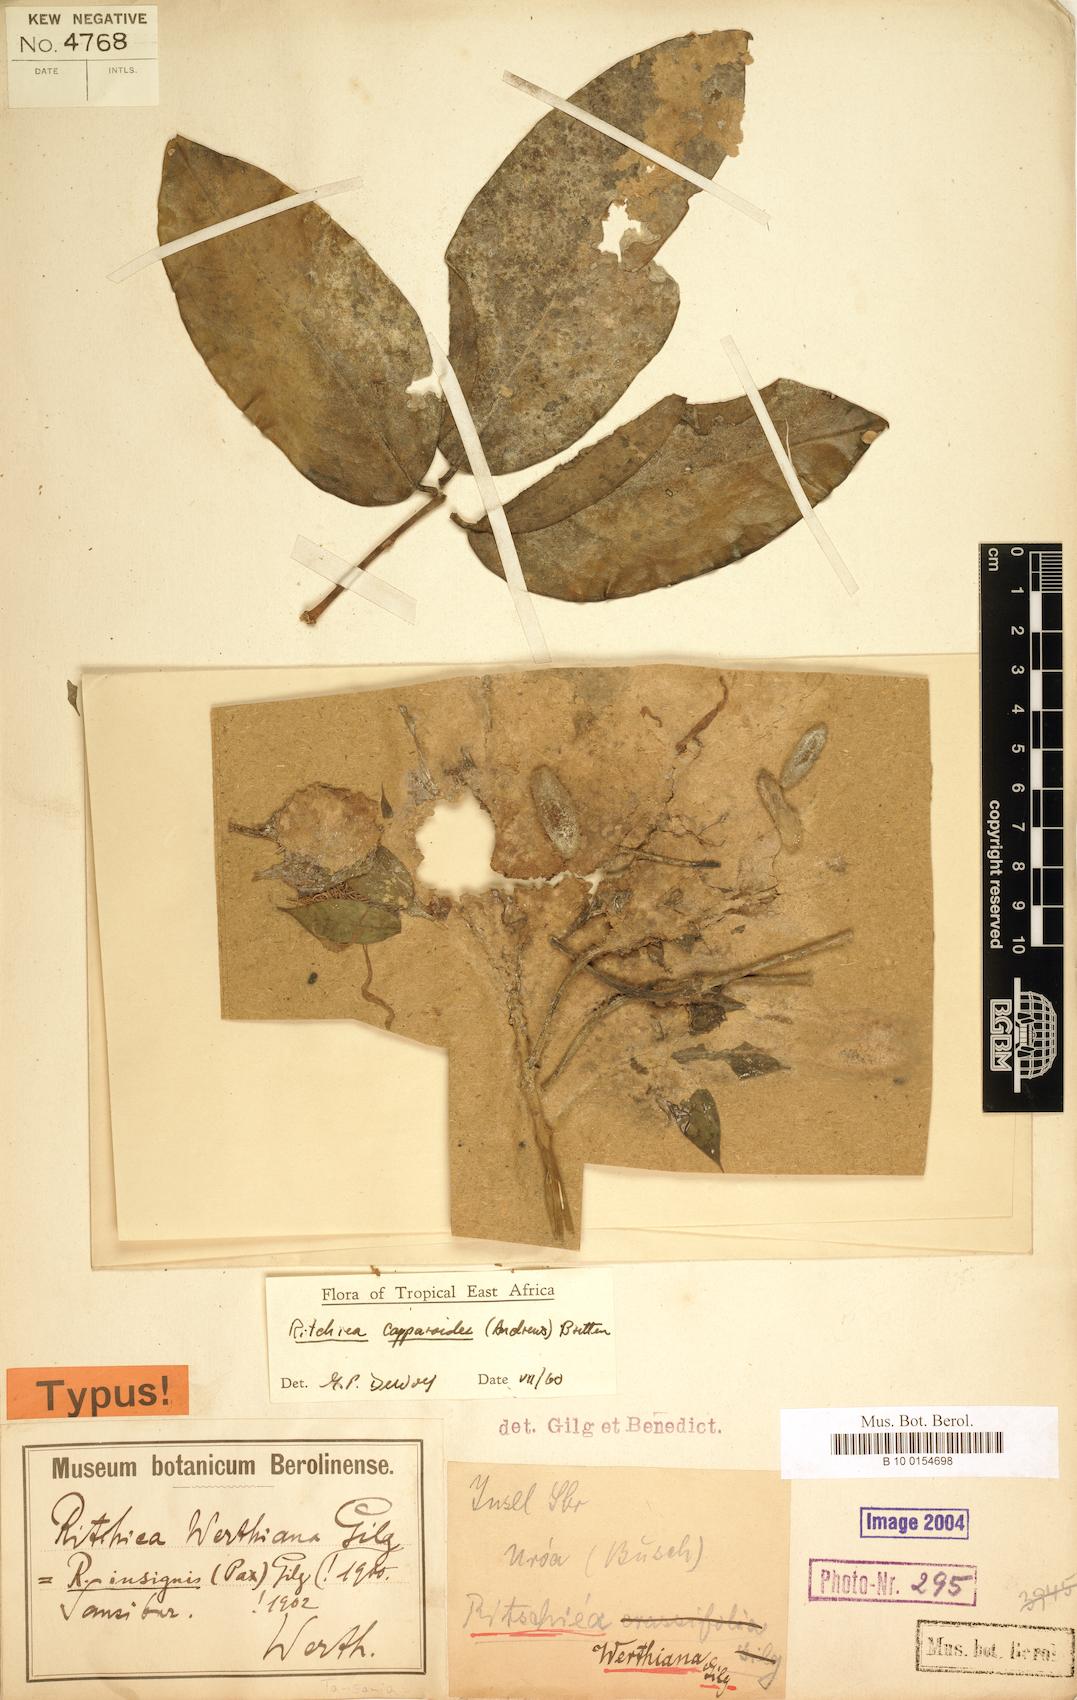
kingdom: Plantae
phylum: Tracheophyta
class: Magnoliopsida
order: Brassicales
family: Capparaceae
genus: Ritchiea
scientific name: Ritchiea capparoides
